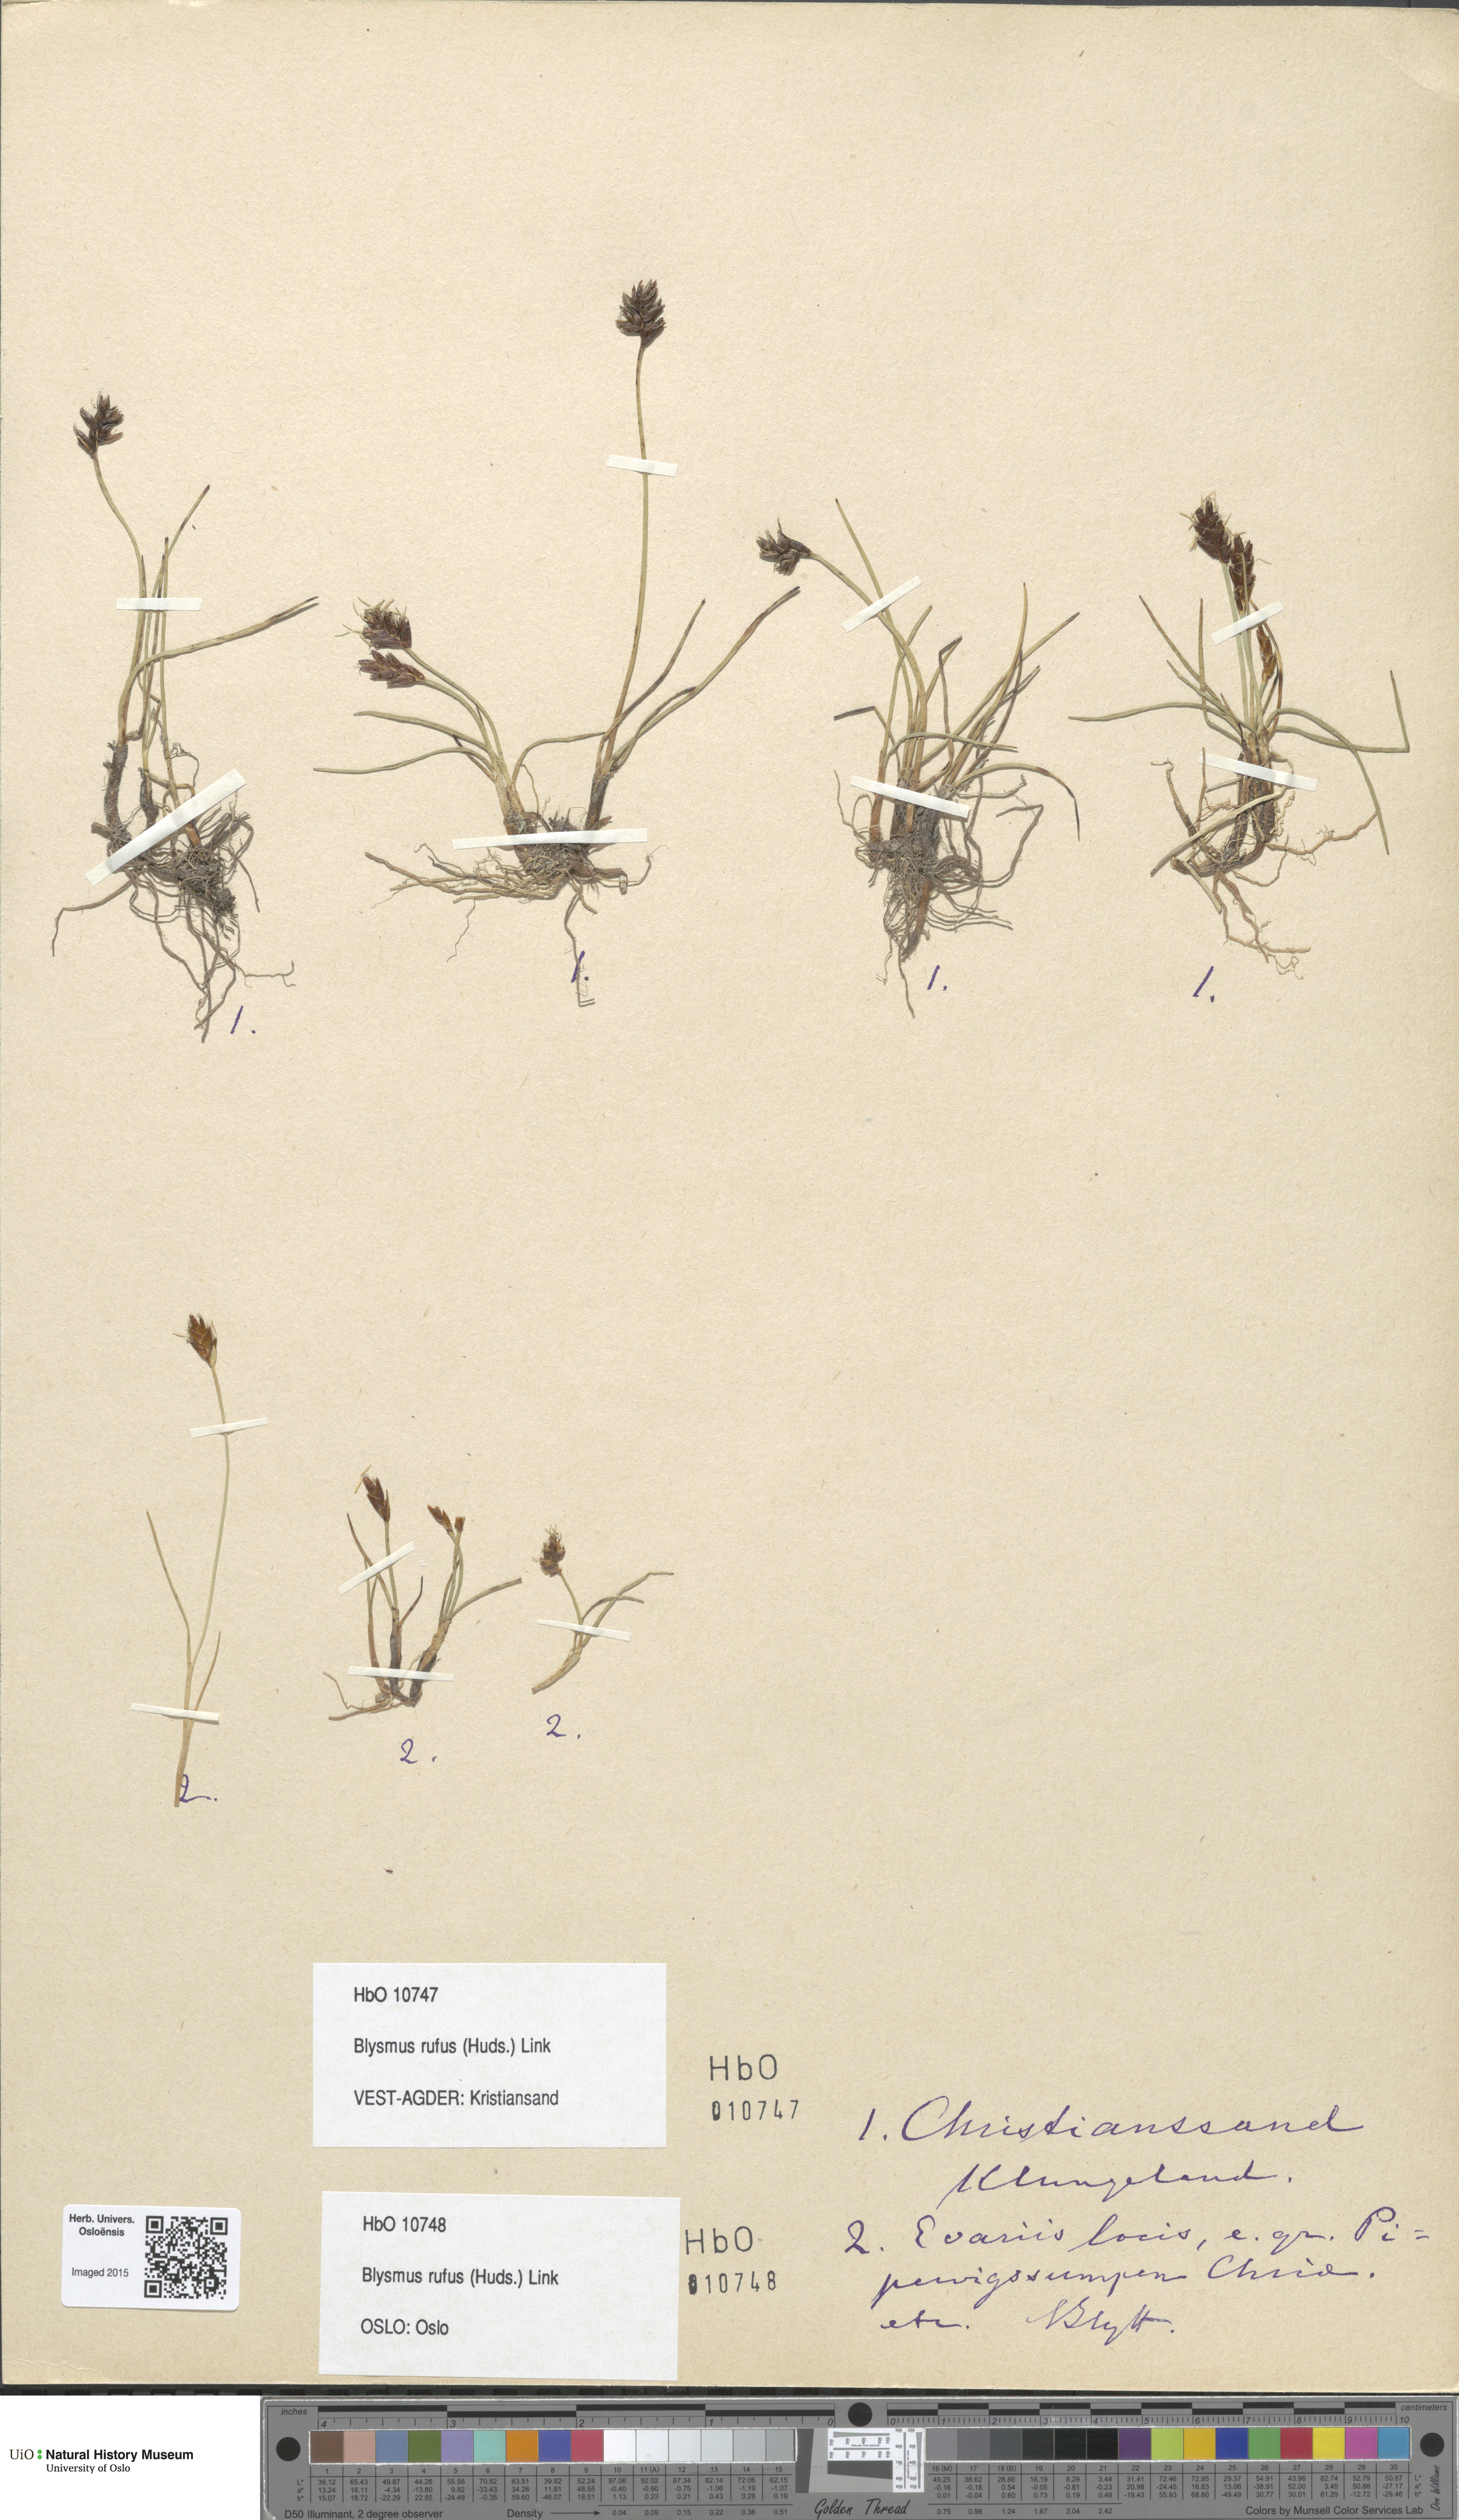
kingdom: Plantae
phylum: Tracheophyta
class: Liliopsida
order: Poales
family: Cyperaceae
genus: Blysmus
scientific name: Blysmus rufus
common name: Saltmarsh flat-sedge
